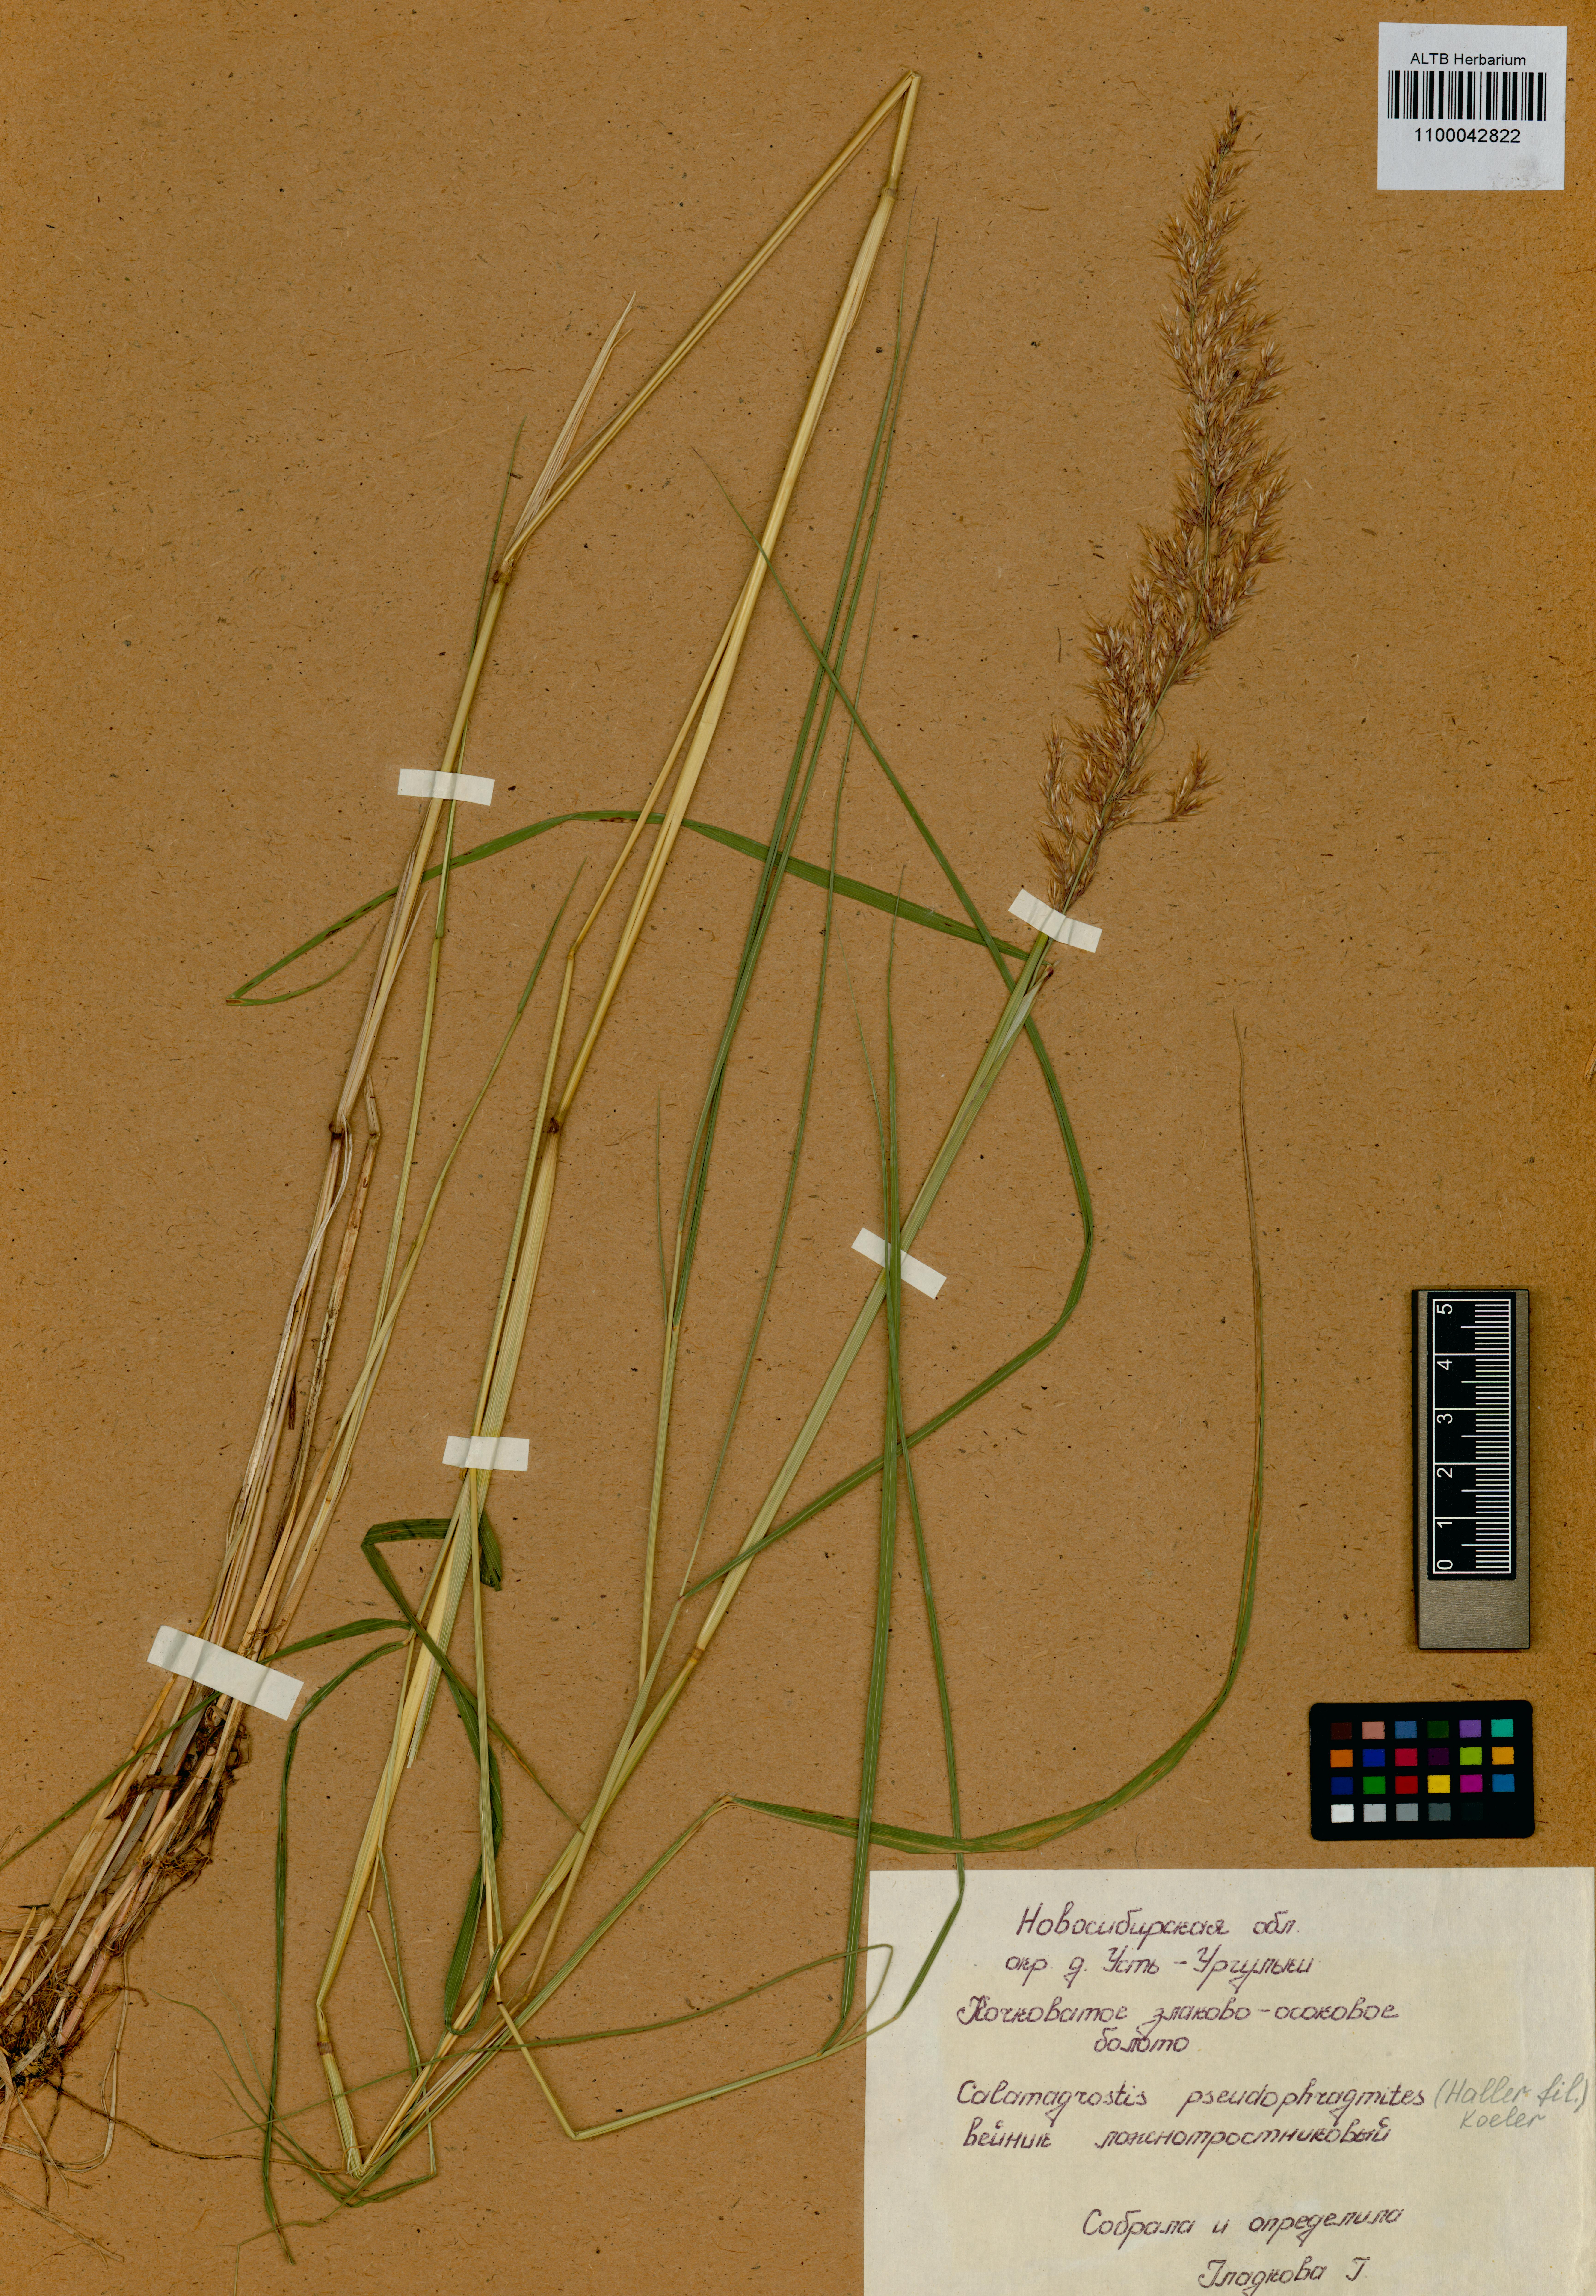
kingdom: Plantae
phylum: Tracheophyta
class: Liliopsida
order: Poales
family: Poaceae
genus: Calamagrostis
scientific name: Calamagrostis pseudophragmites
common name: Coastal small-reed
